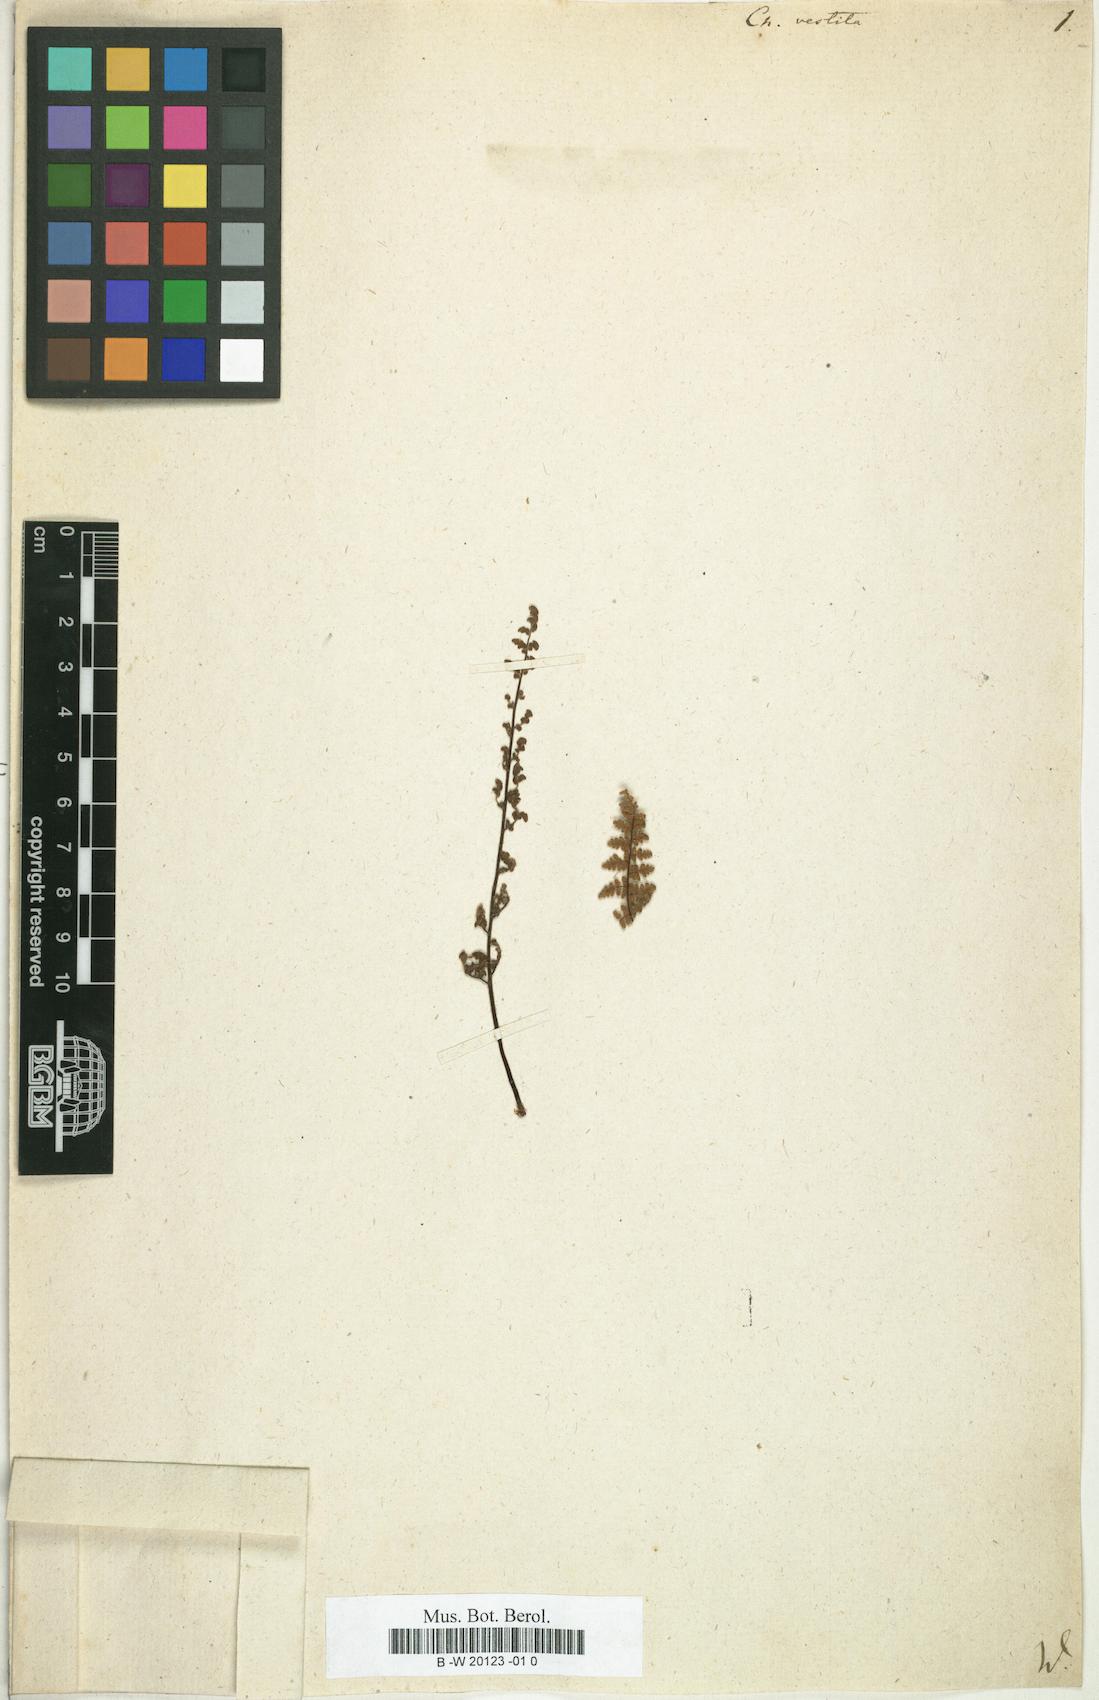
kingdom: Plantae
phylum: Tracheophyta
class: Polypodiopsida
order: Polypodiales
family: Pteridaceae
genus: Myriopteris
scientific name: Myriopteris
